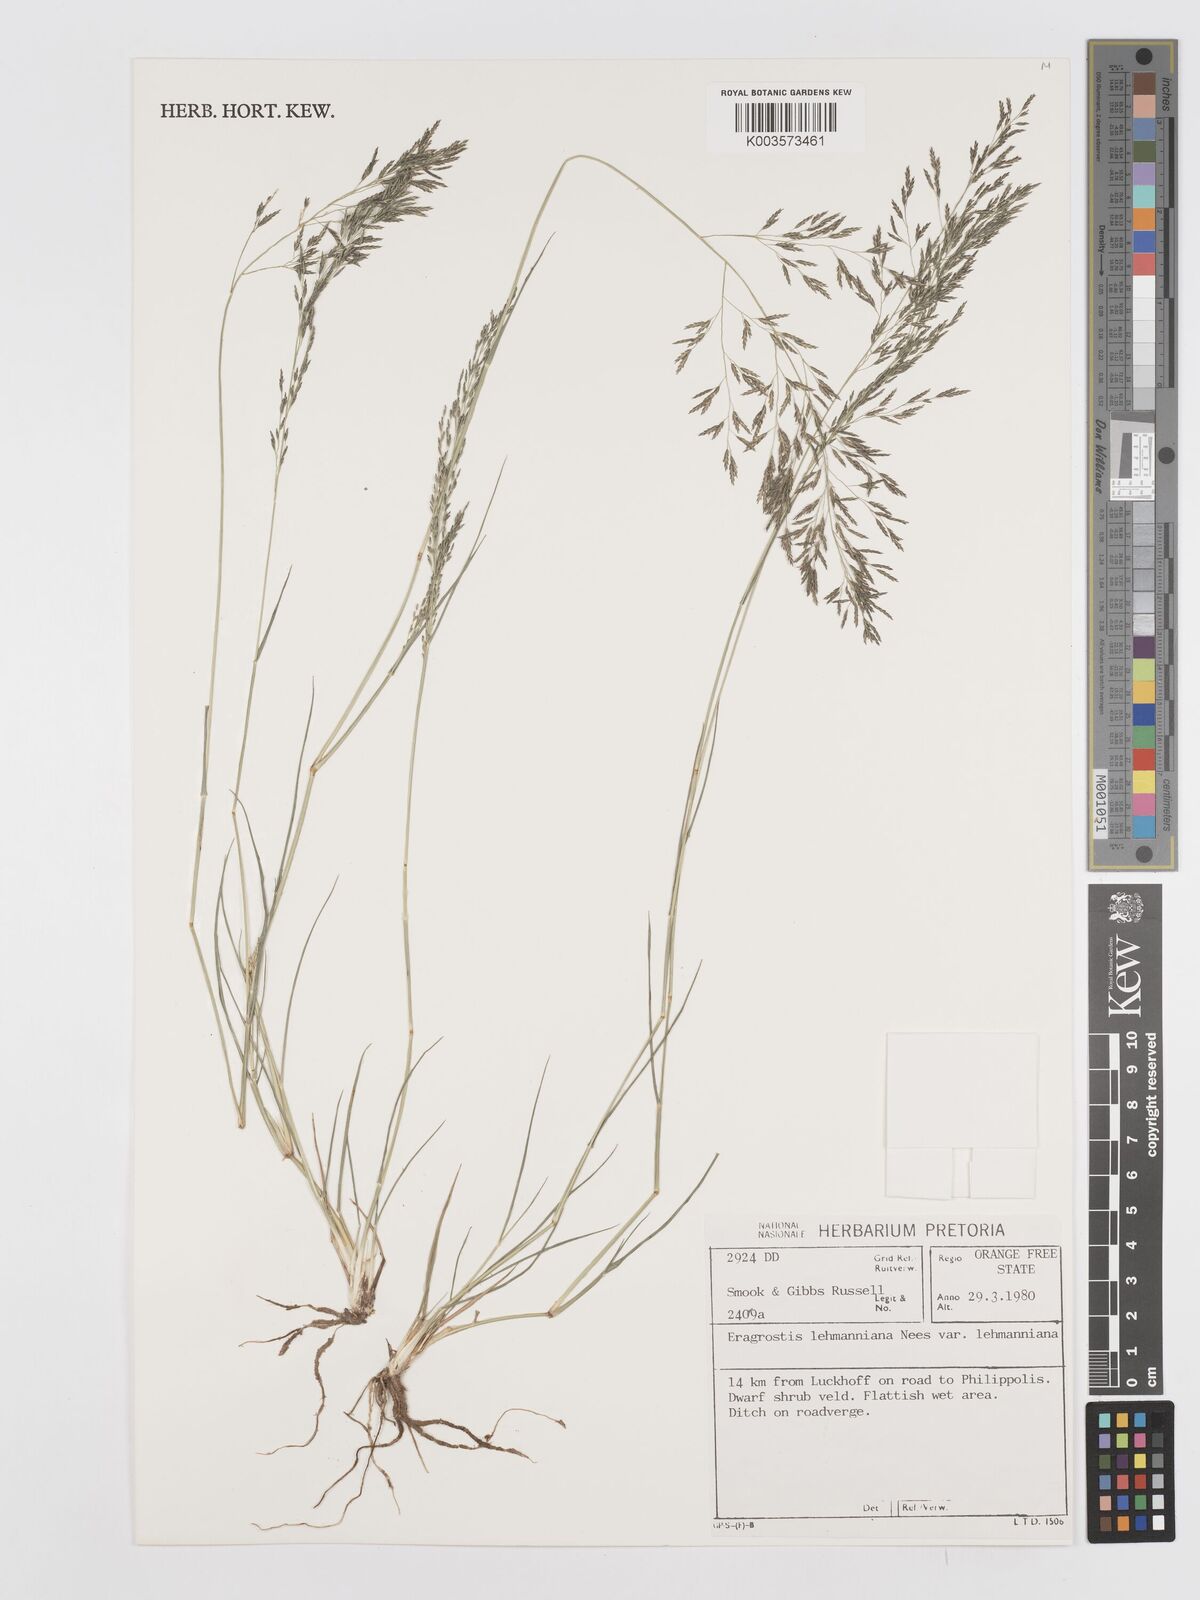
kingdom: Plantae
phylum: Tracheophyta
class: Liliopsida
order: Poales
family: Poaceae
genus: Eragrostis
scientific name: Eragrostis lehmanniana
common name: Lehmann lovegrass
